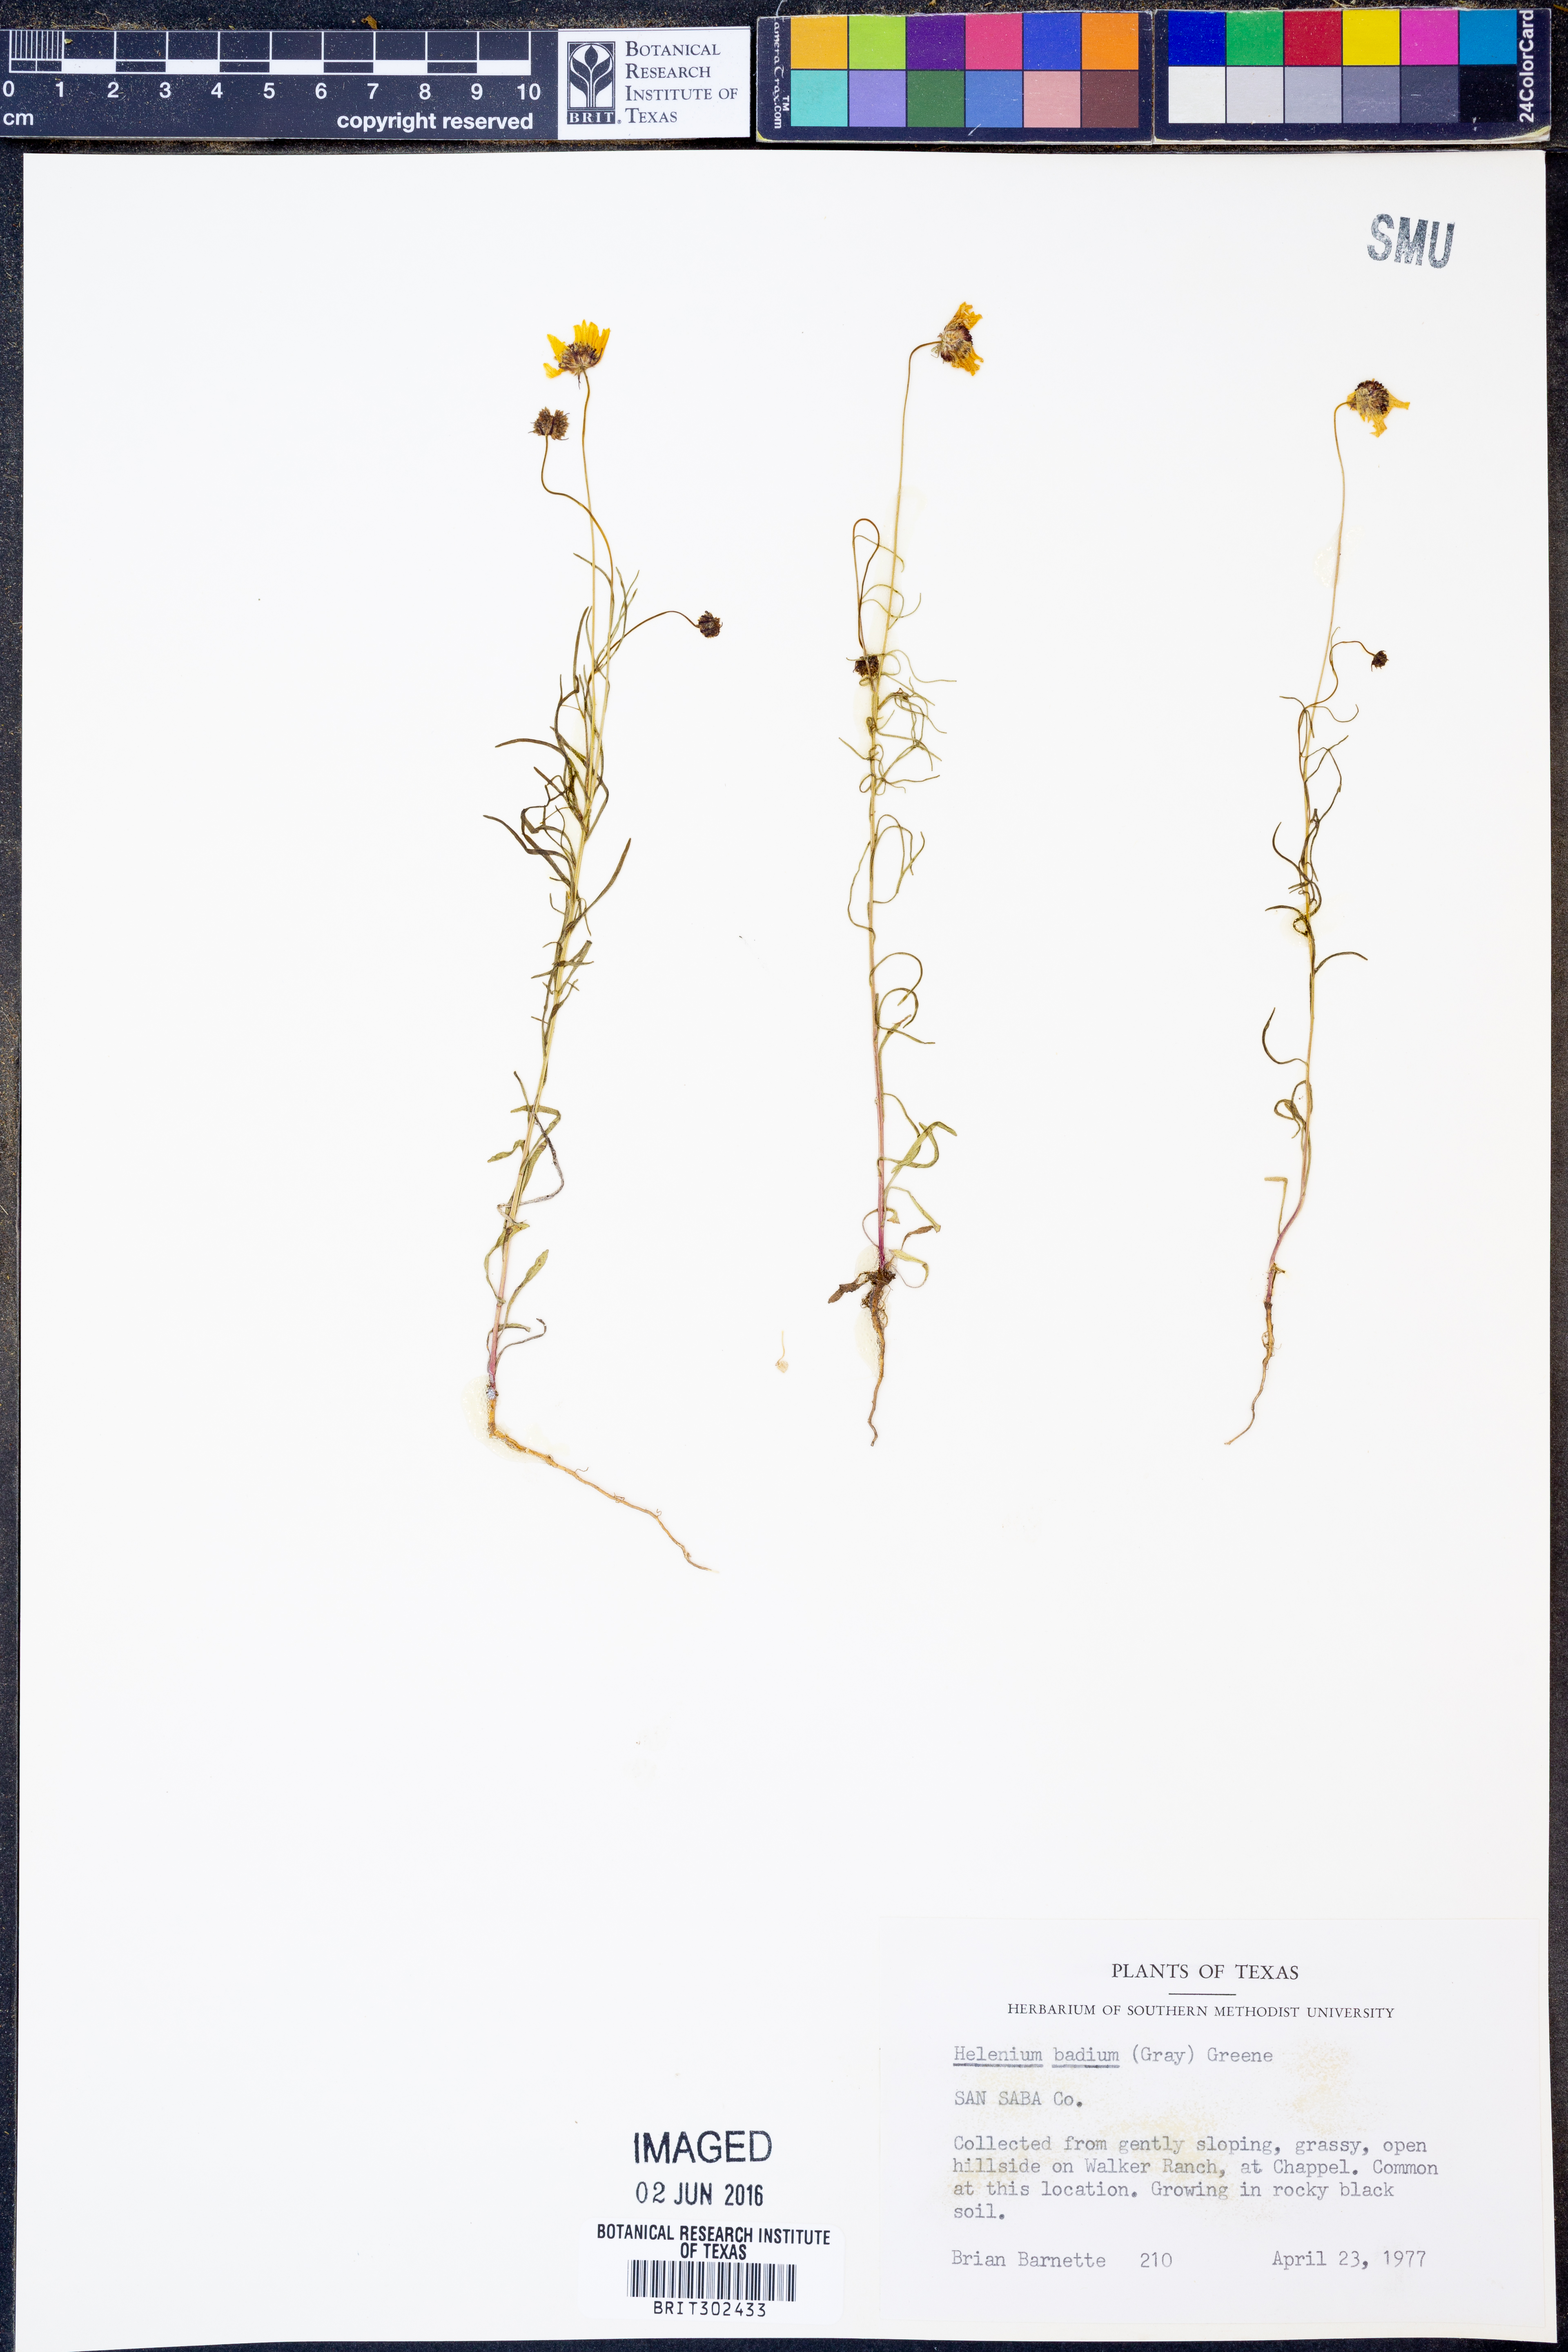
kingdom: Plantae
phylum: Tracheophyta
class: Magnoliopsida
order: Asterales
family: Asteraceae
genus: Helenium
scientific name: Helenium amarum
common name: Bitter sneezeweed
